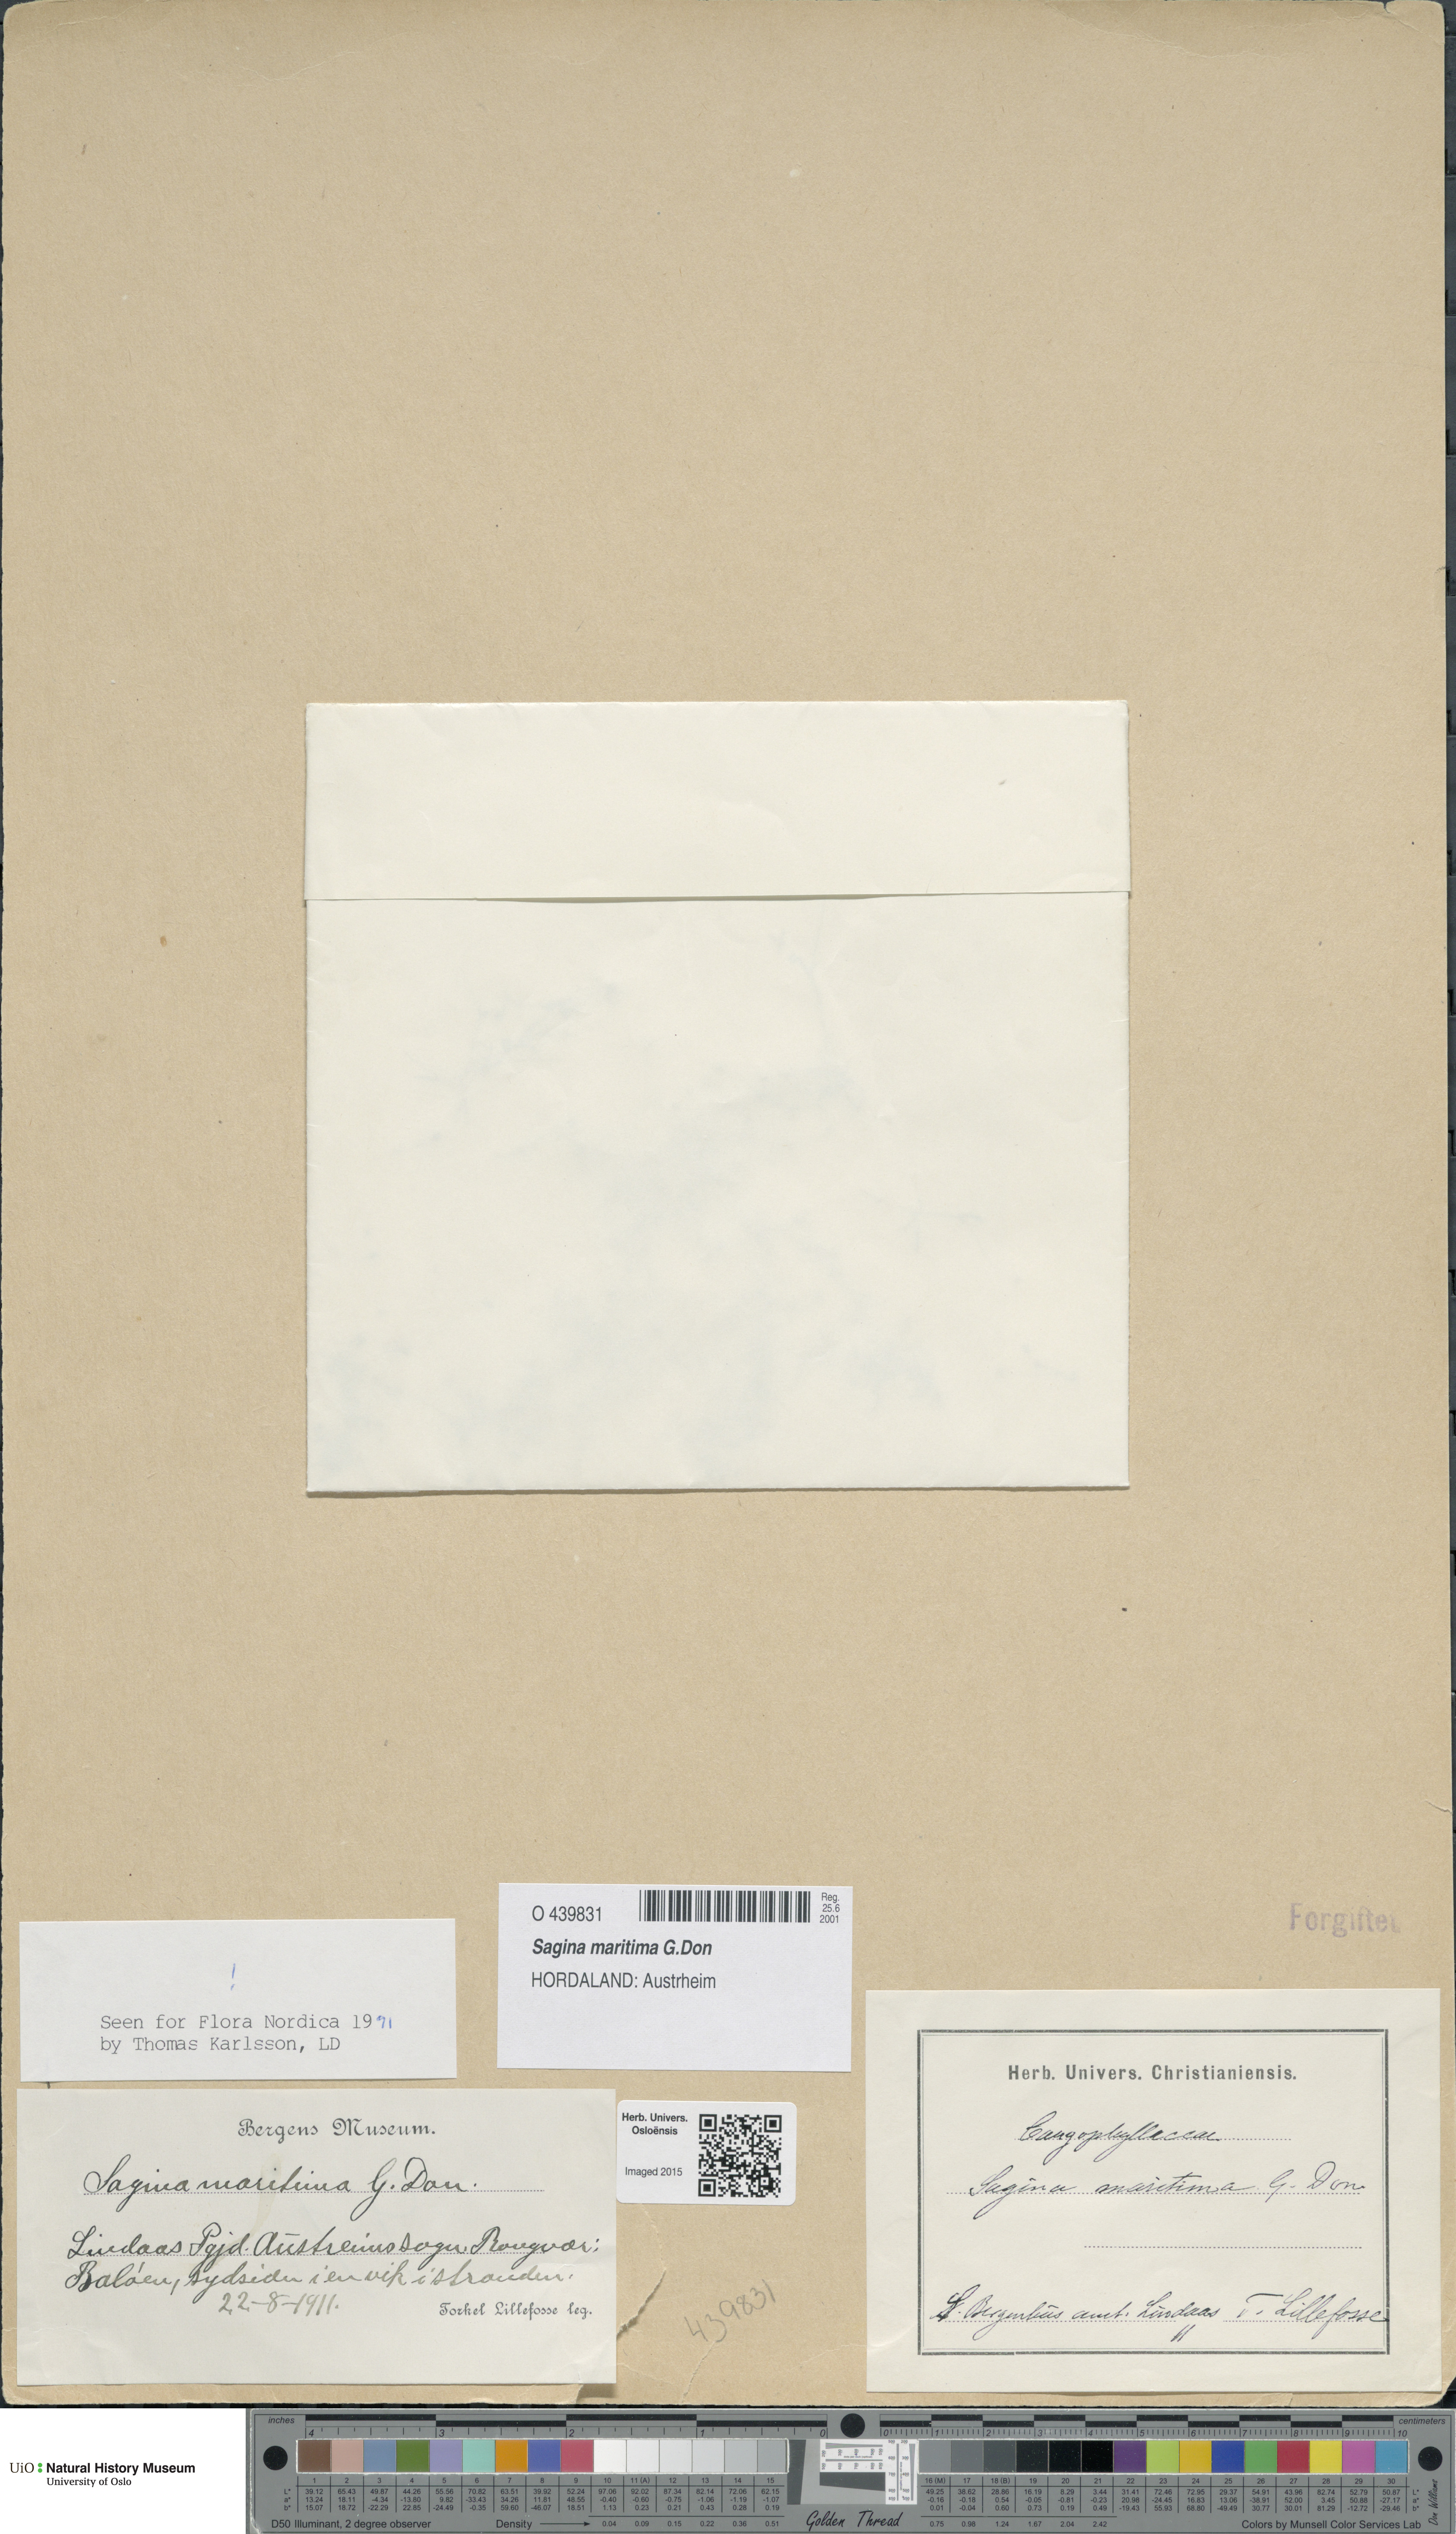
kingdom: Plantae
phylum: Tracheophyta
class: Magnoliopsida
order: Caryophyllales
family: Caryophyllaceae
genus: Sagina
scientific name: Sagina maritima
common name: Sea pearlwort
